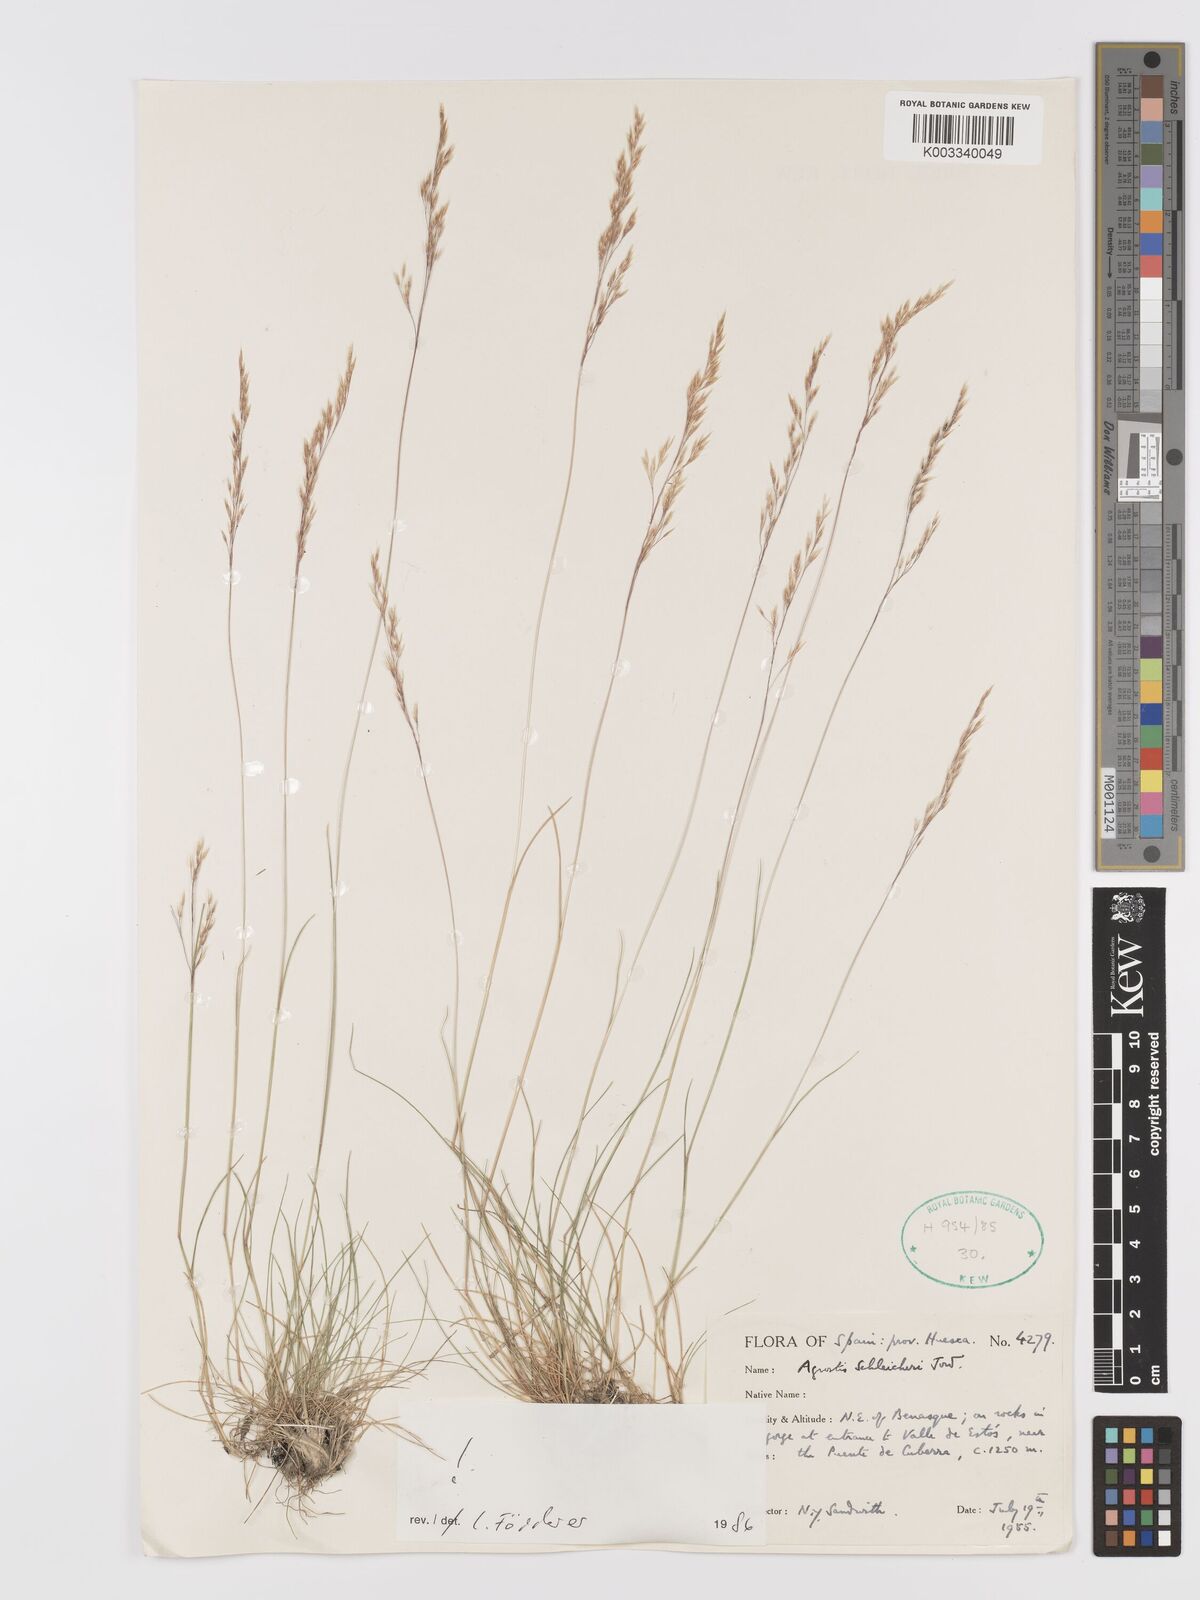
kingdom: Plantae
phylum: Tracheophyta
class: Liliopsida
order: Poales
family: Poaceae
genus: Alpagrostis
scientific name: Alpagrostis schleicheri
